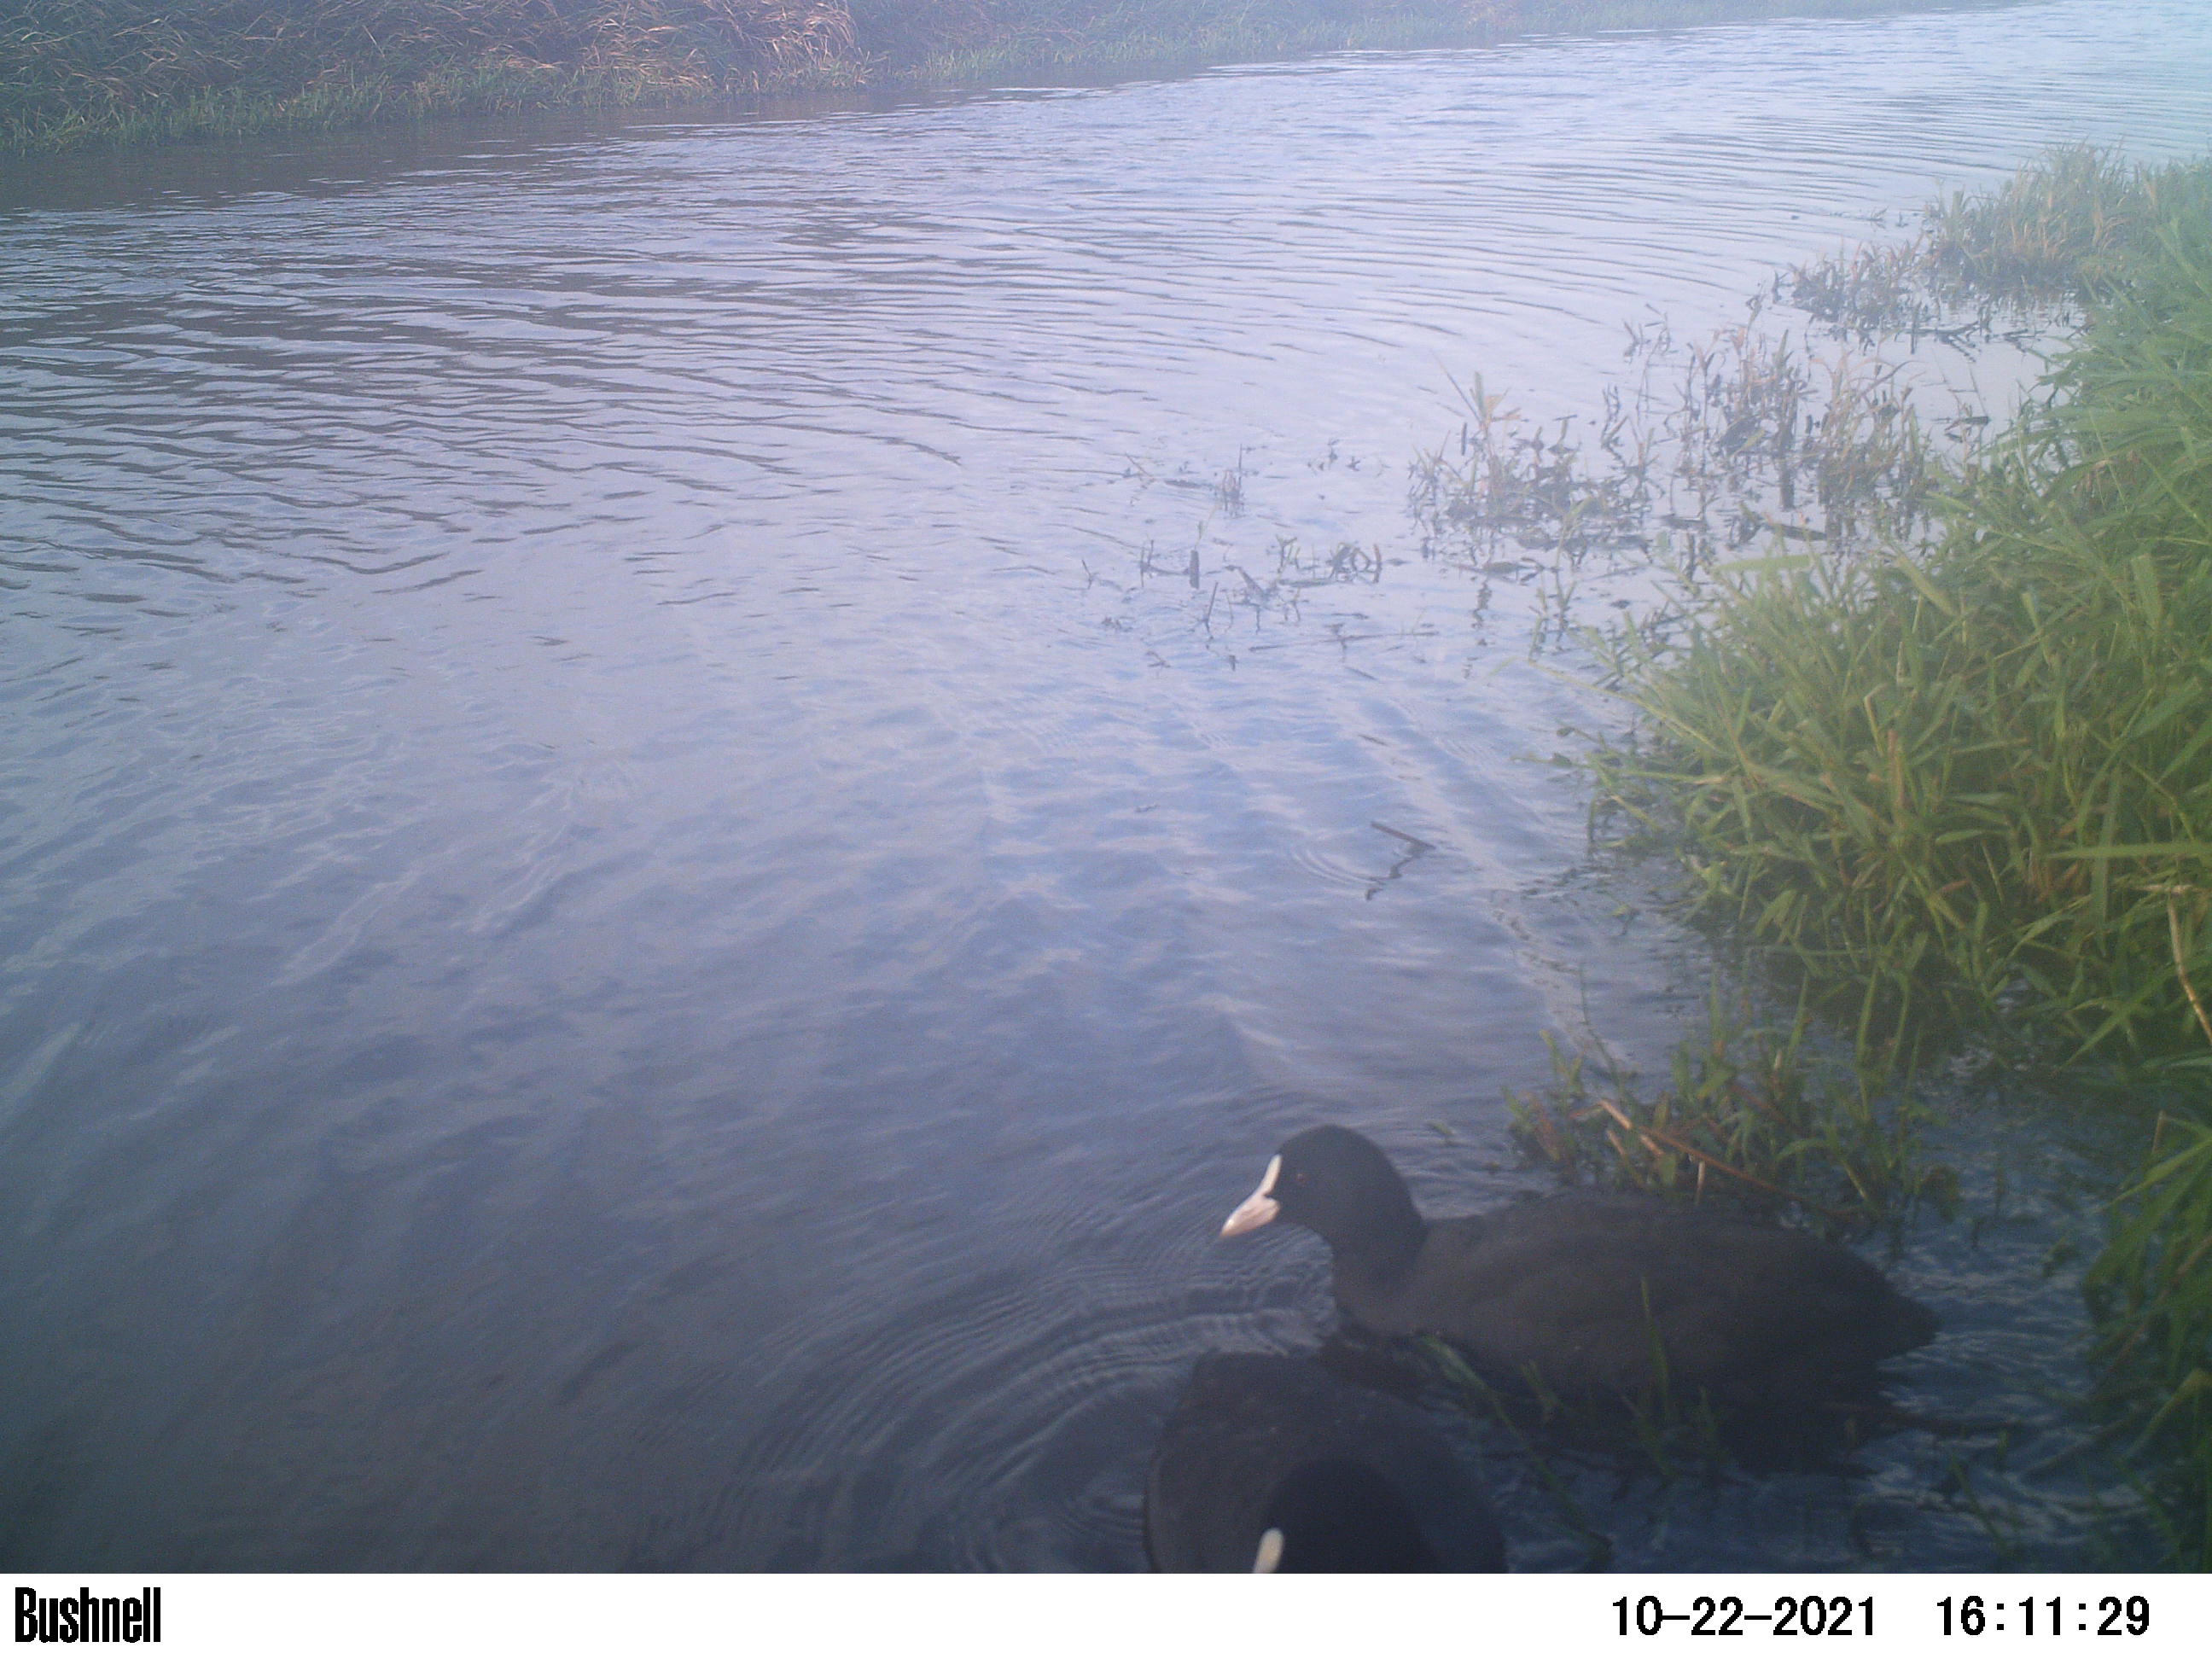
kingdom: Animalia
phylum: Chordata
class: Aves
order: Gruiformes
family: Rallidae
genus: Fulica
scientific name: Fulica atra
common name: Eurasian coot
